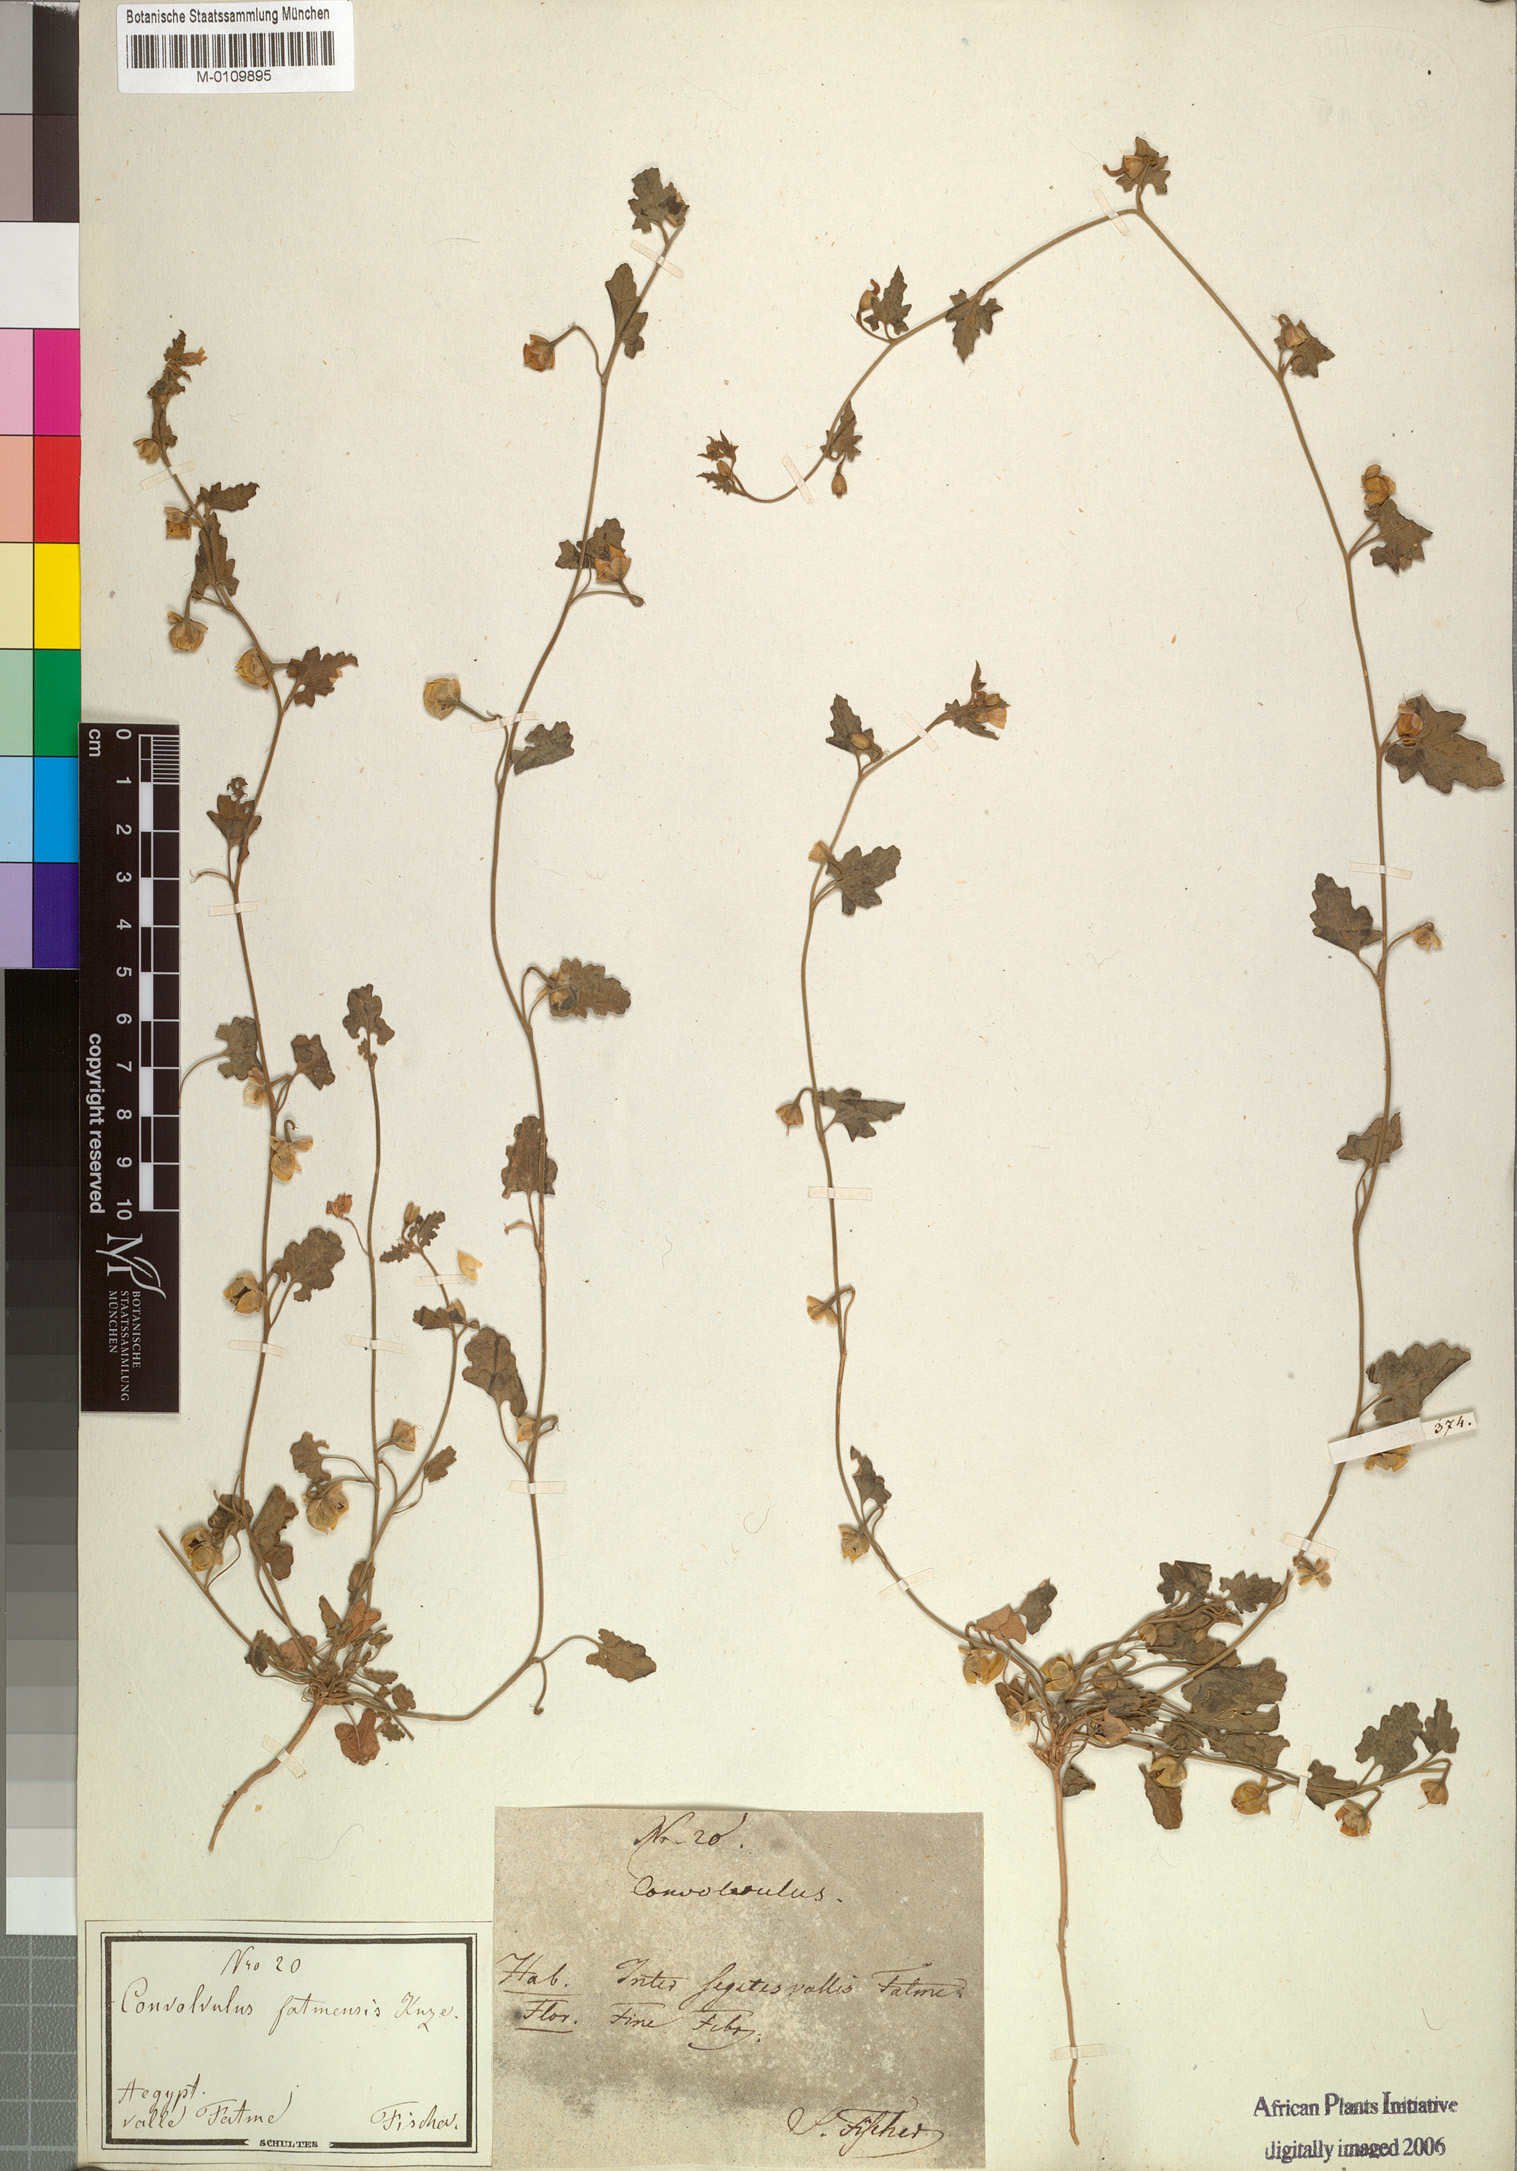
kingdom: Plantae
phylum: Tracheophyta
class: Magnoliopsida
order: Solanales
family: Convolvulaceae
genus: Convolvulus
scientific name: Convolvulus fatmensis
